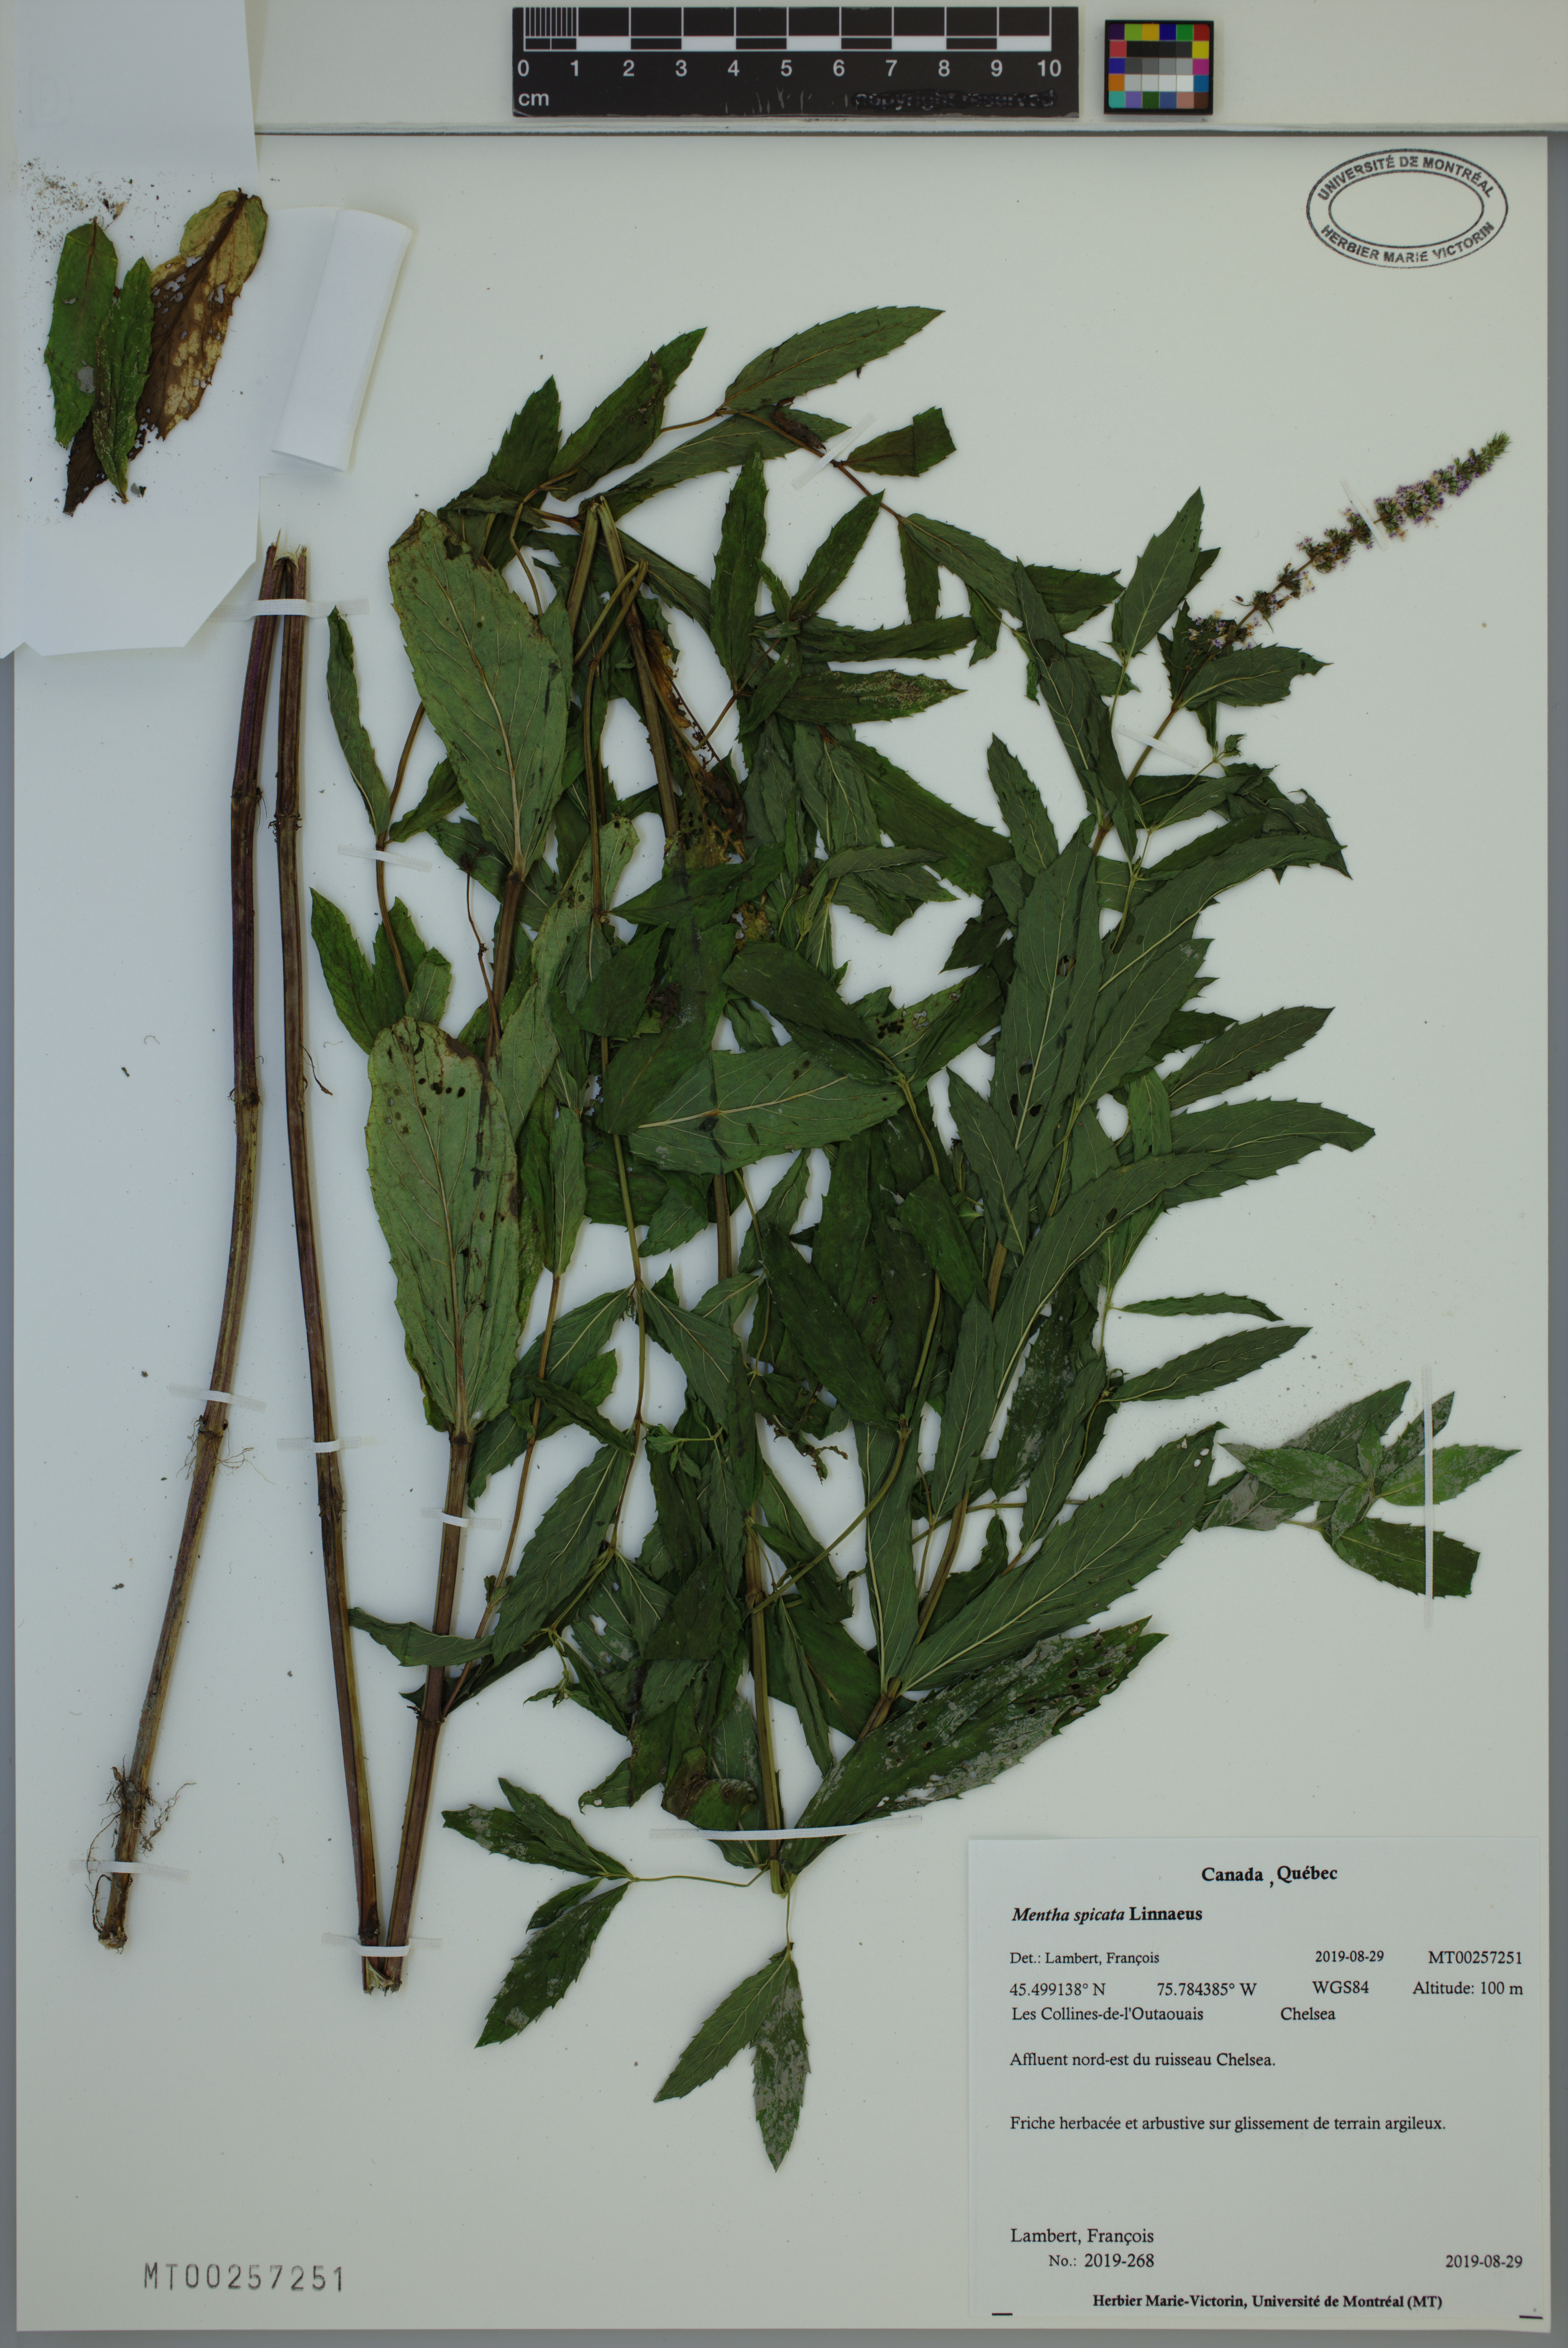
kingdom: Plantae
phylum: Tracheophyta
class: Magnoliopsida
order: Lamiales
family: Lamiaceae
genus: Mentha
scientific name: Mentha spicata
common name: Spearmint
